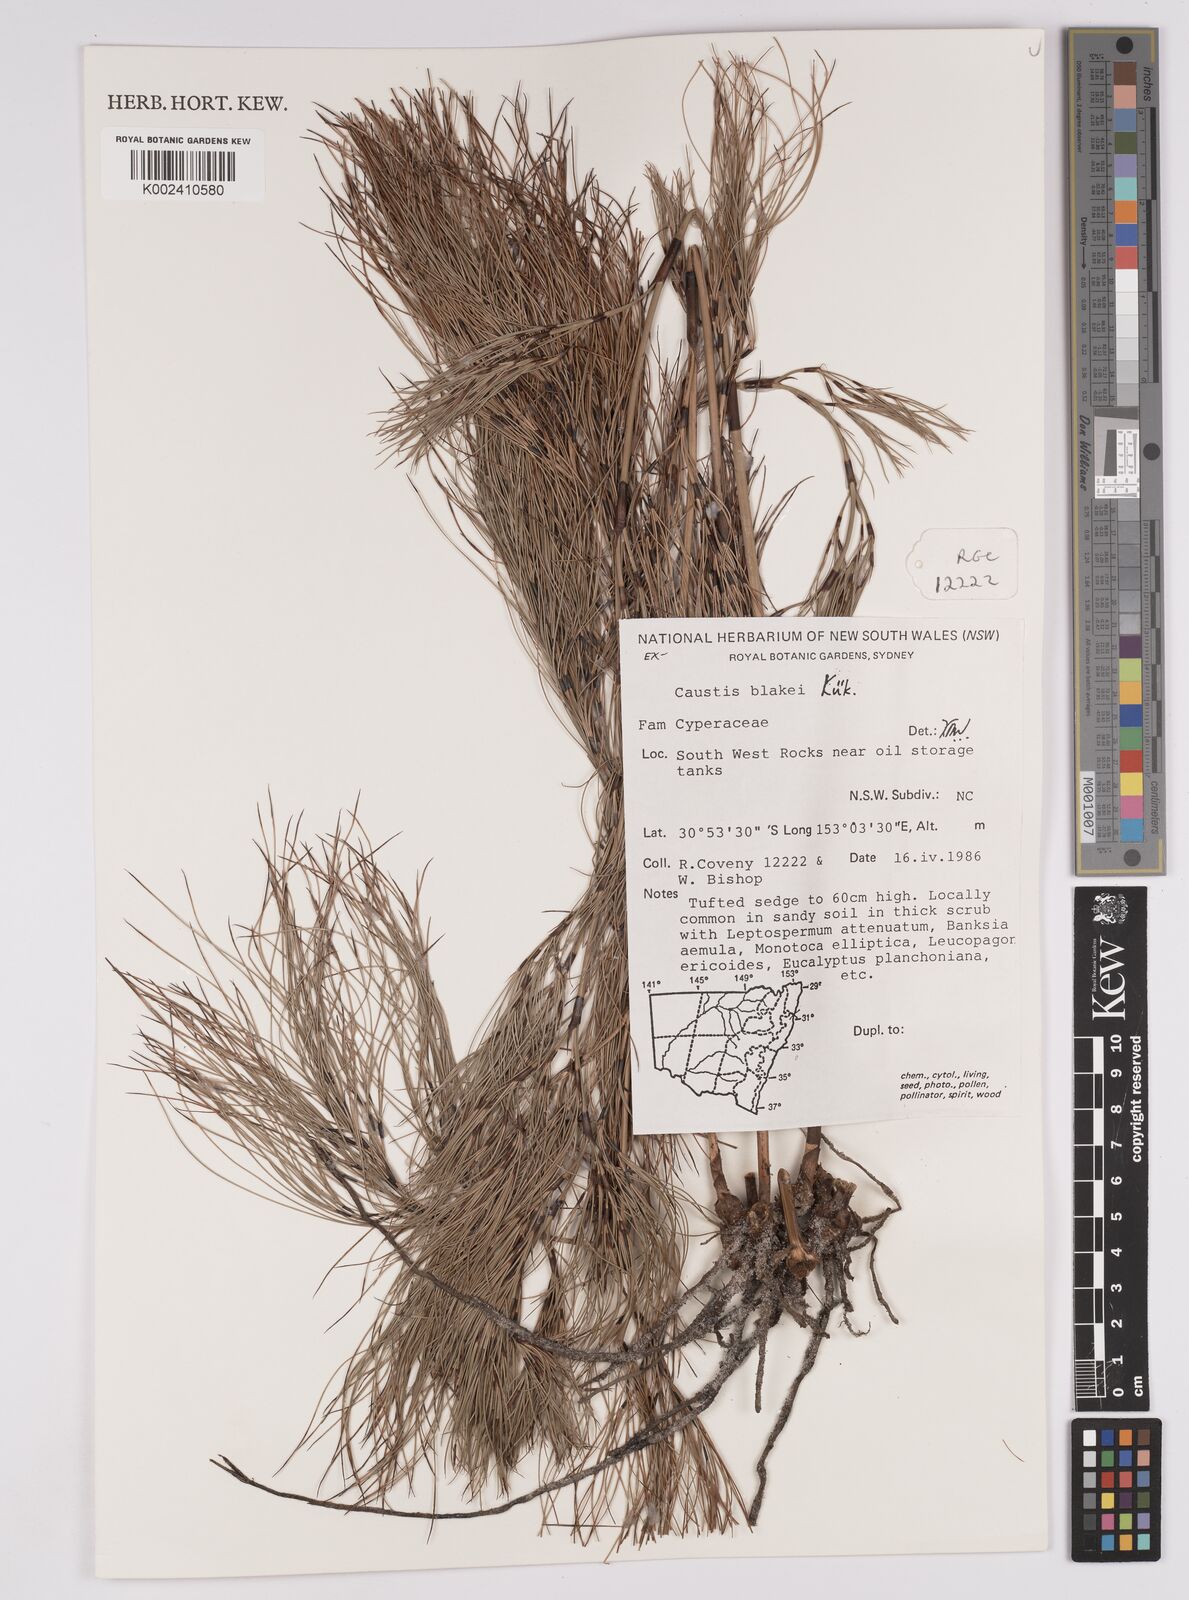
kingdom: Plantae
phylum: Tracheophyta
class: Liliopsida
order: Poales
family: Cyperaceae
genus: Caustis
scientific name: Caustis blakei
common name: Foxtail-fern
